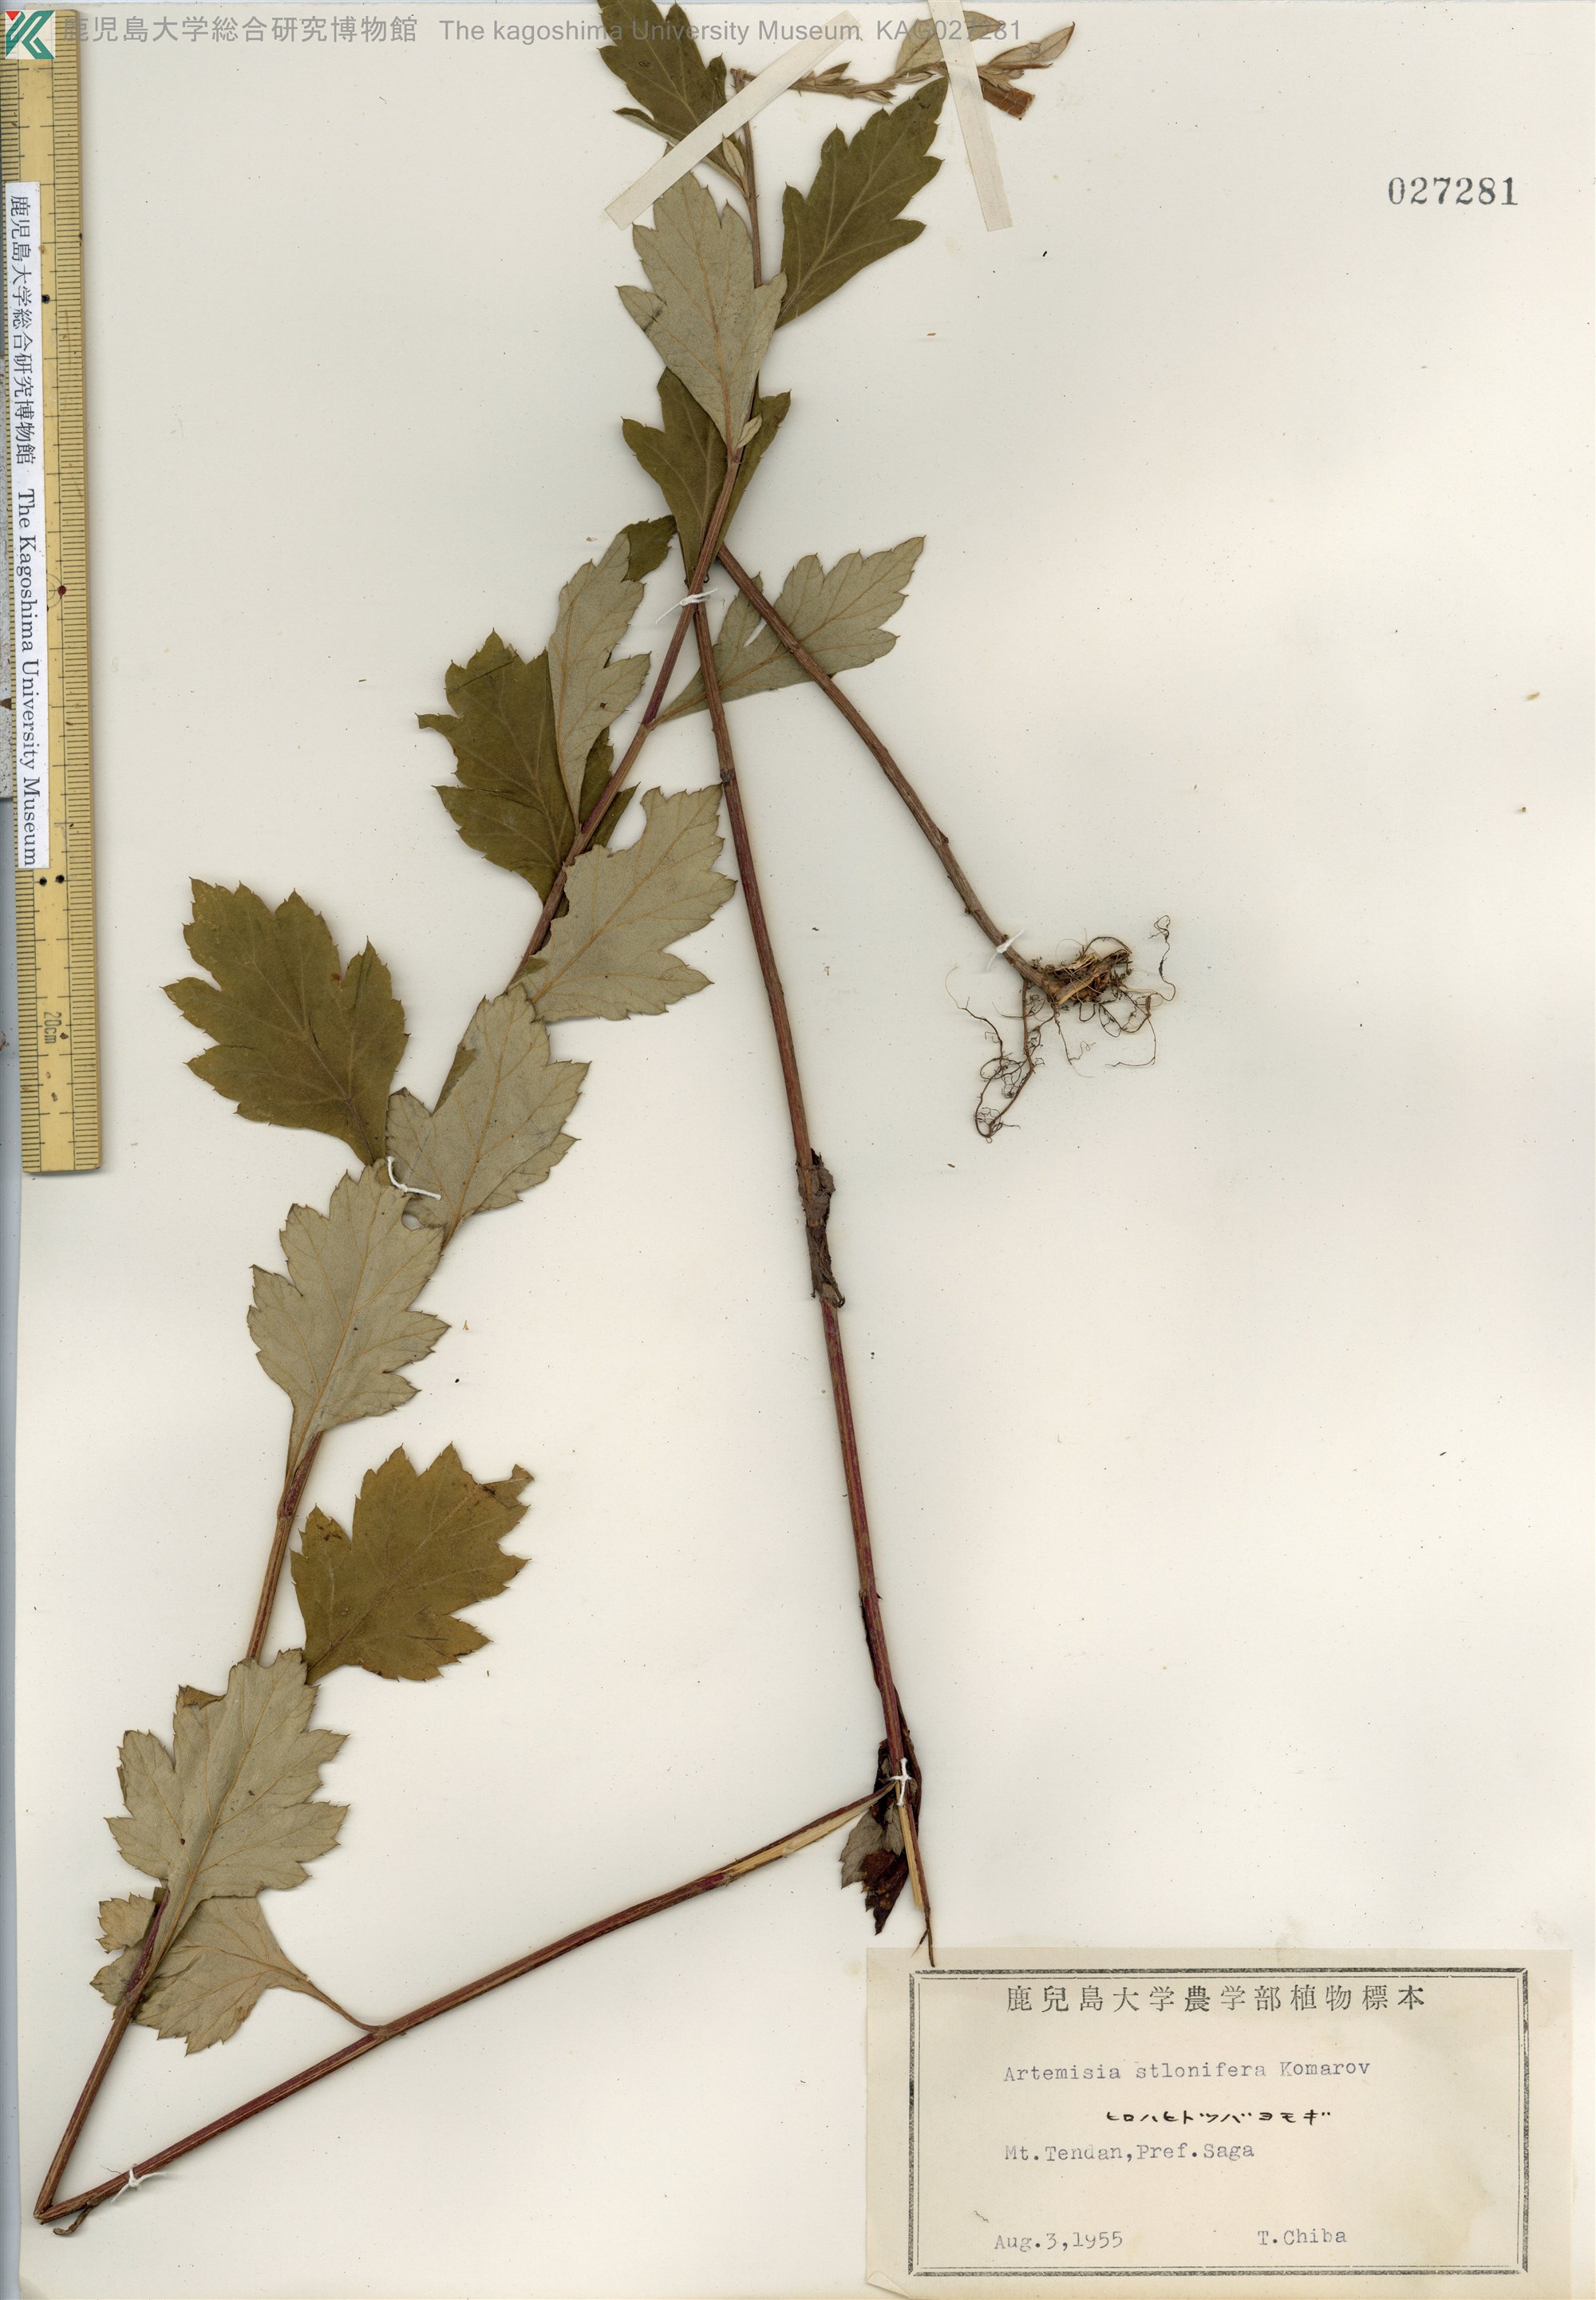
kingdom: Plantae
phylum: Tracheophyta
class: Magnoliopsida
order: Asterales
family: Asteraceae
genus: Artemisia
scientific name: Artemisia stolonifera
